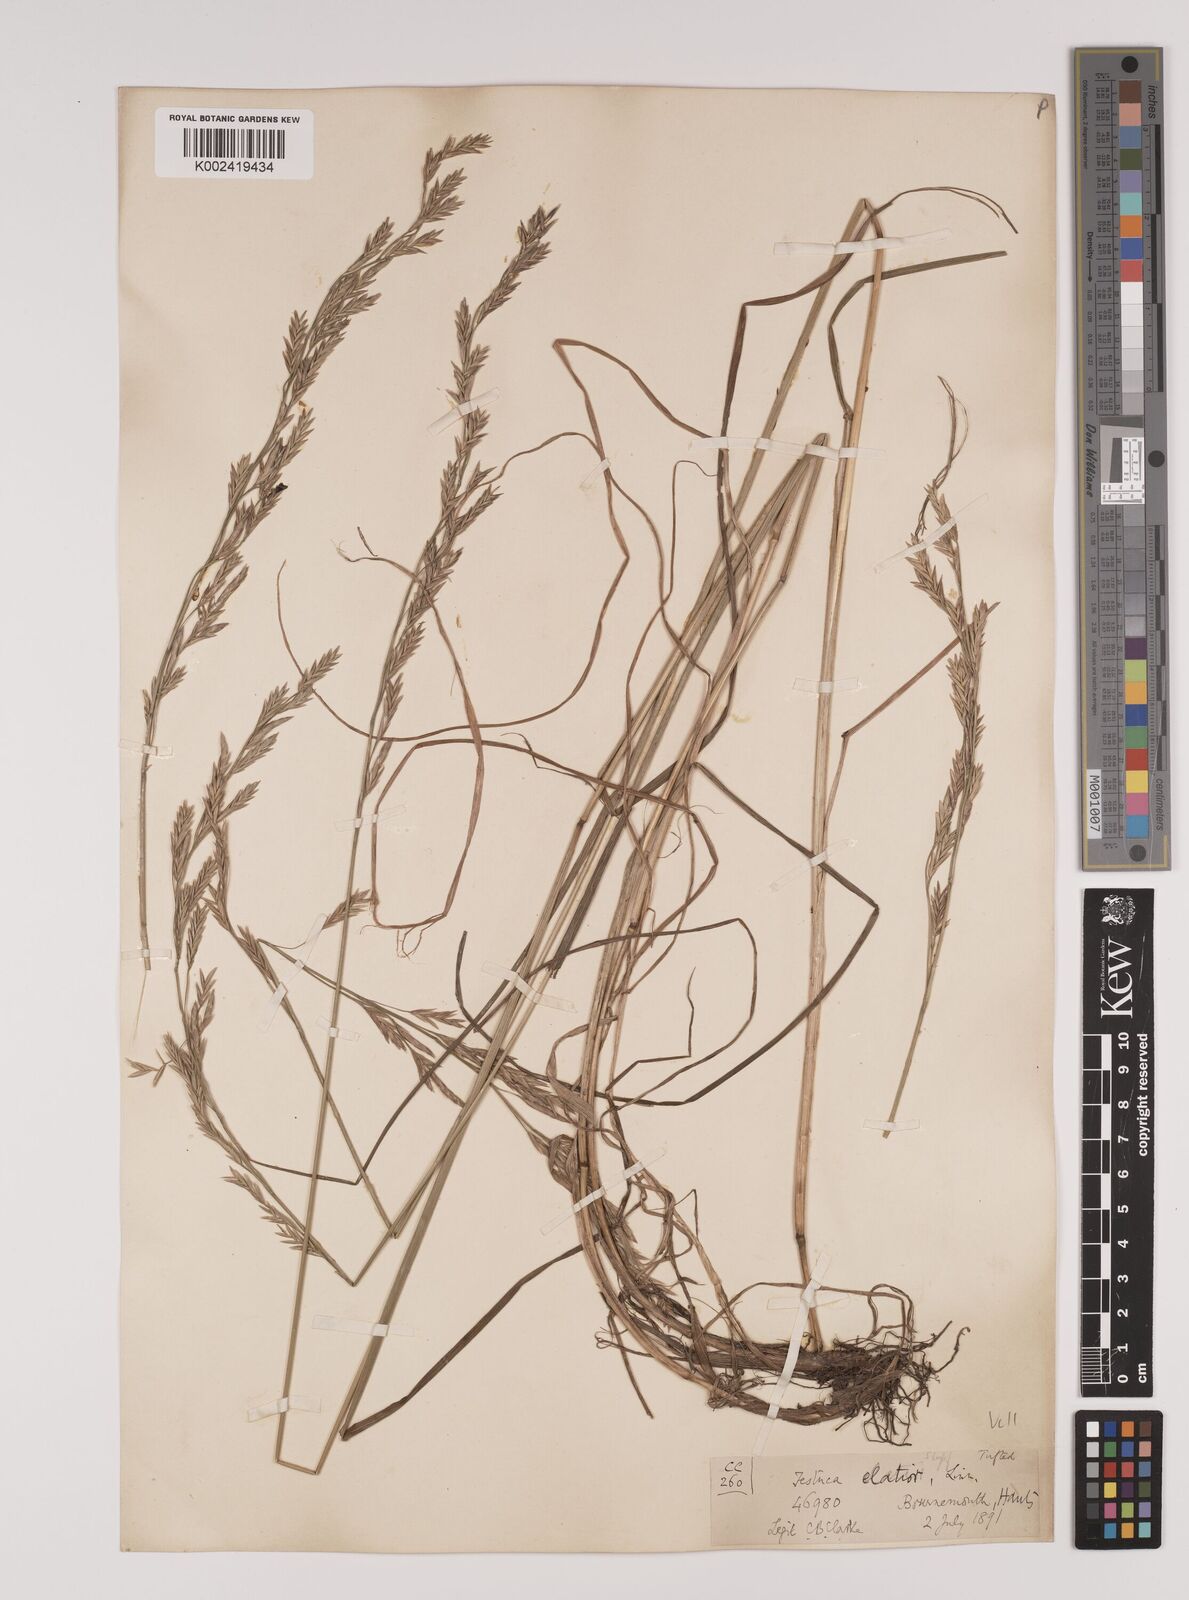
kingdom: Plantae
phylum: Tracheophyta
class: Liliopsida
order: Poales
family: Poaceae
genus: Lolium
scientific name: Lolium pratense
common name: Dover grass
